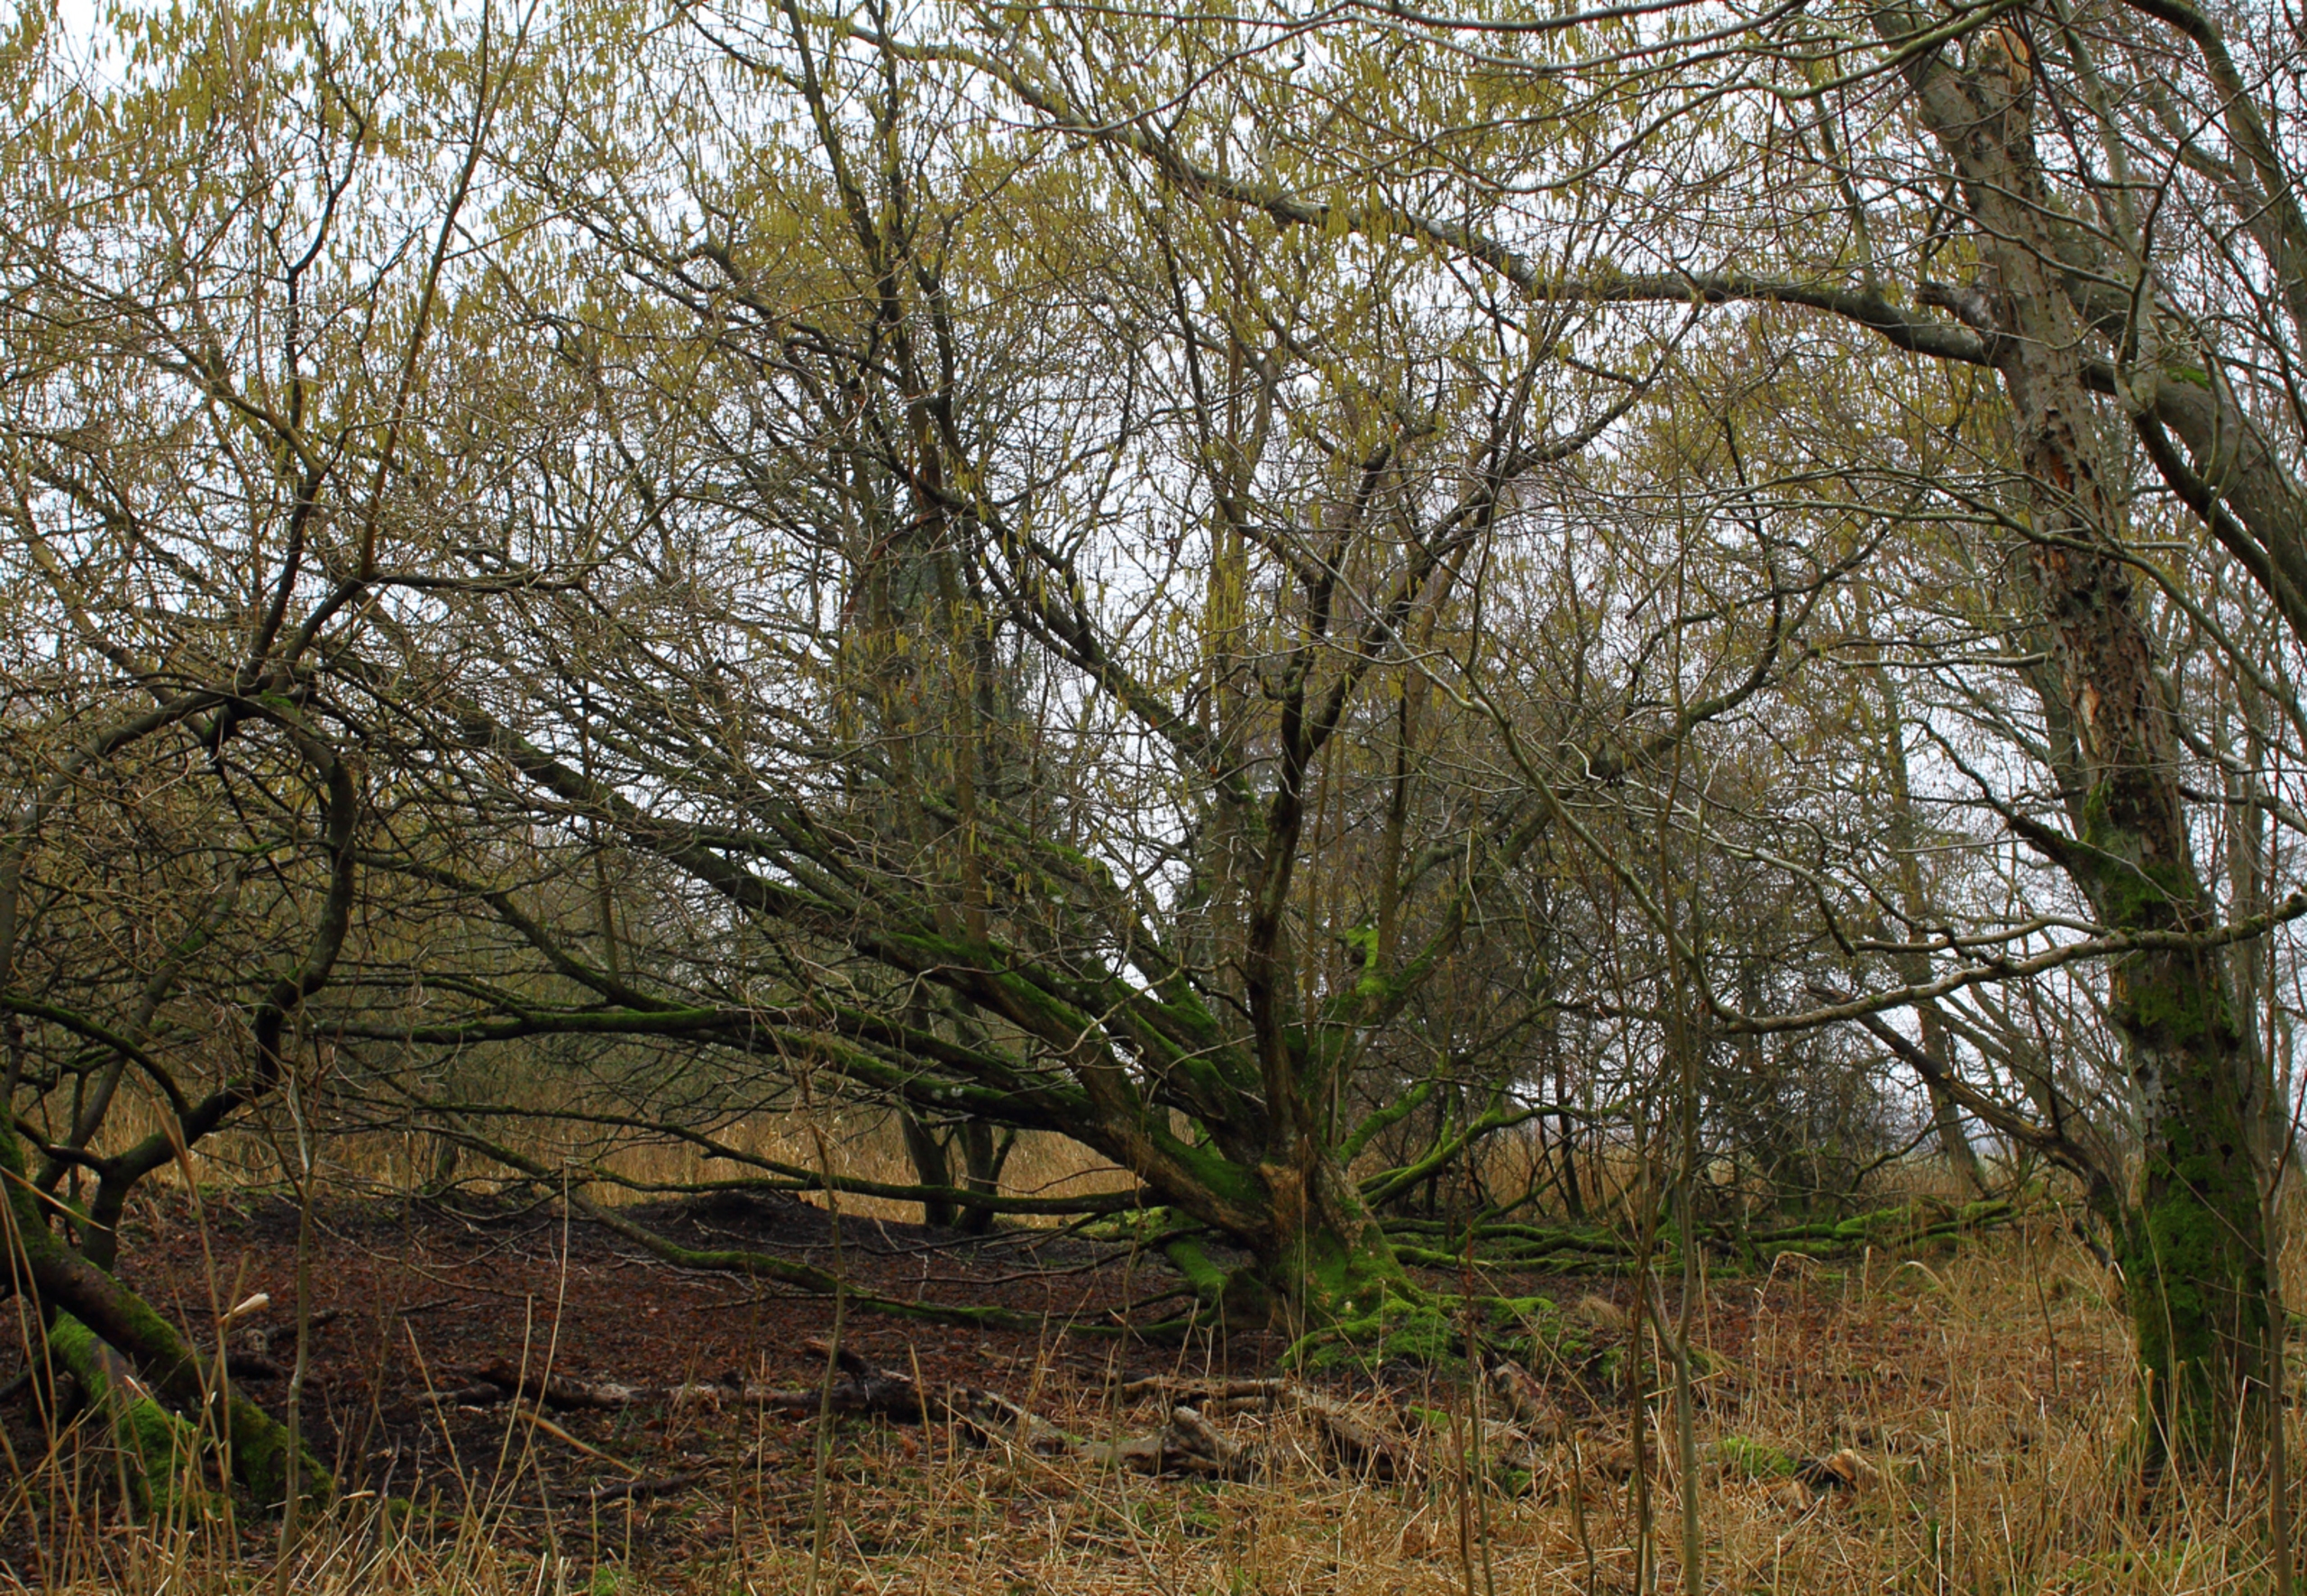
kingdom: Plantae
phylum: Tracheophyta
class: Magnoliopsida
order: Fagales
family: Betulaceae
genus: Corylus
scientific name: Corylus avellana
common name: Hassel
